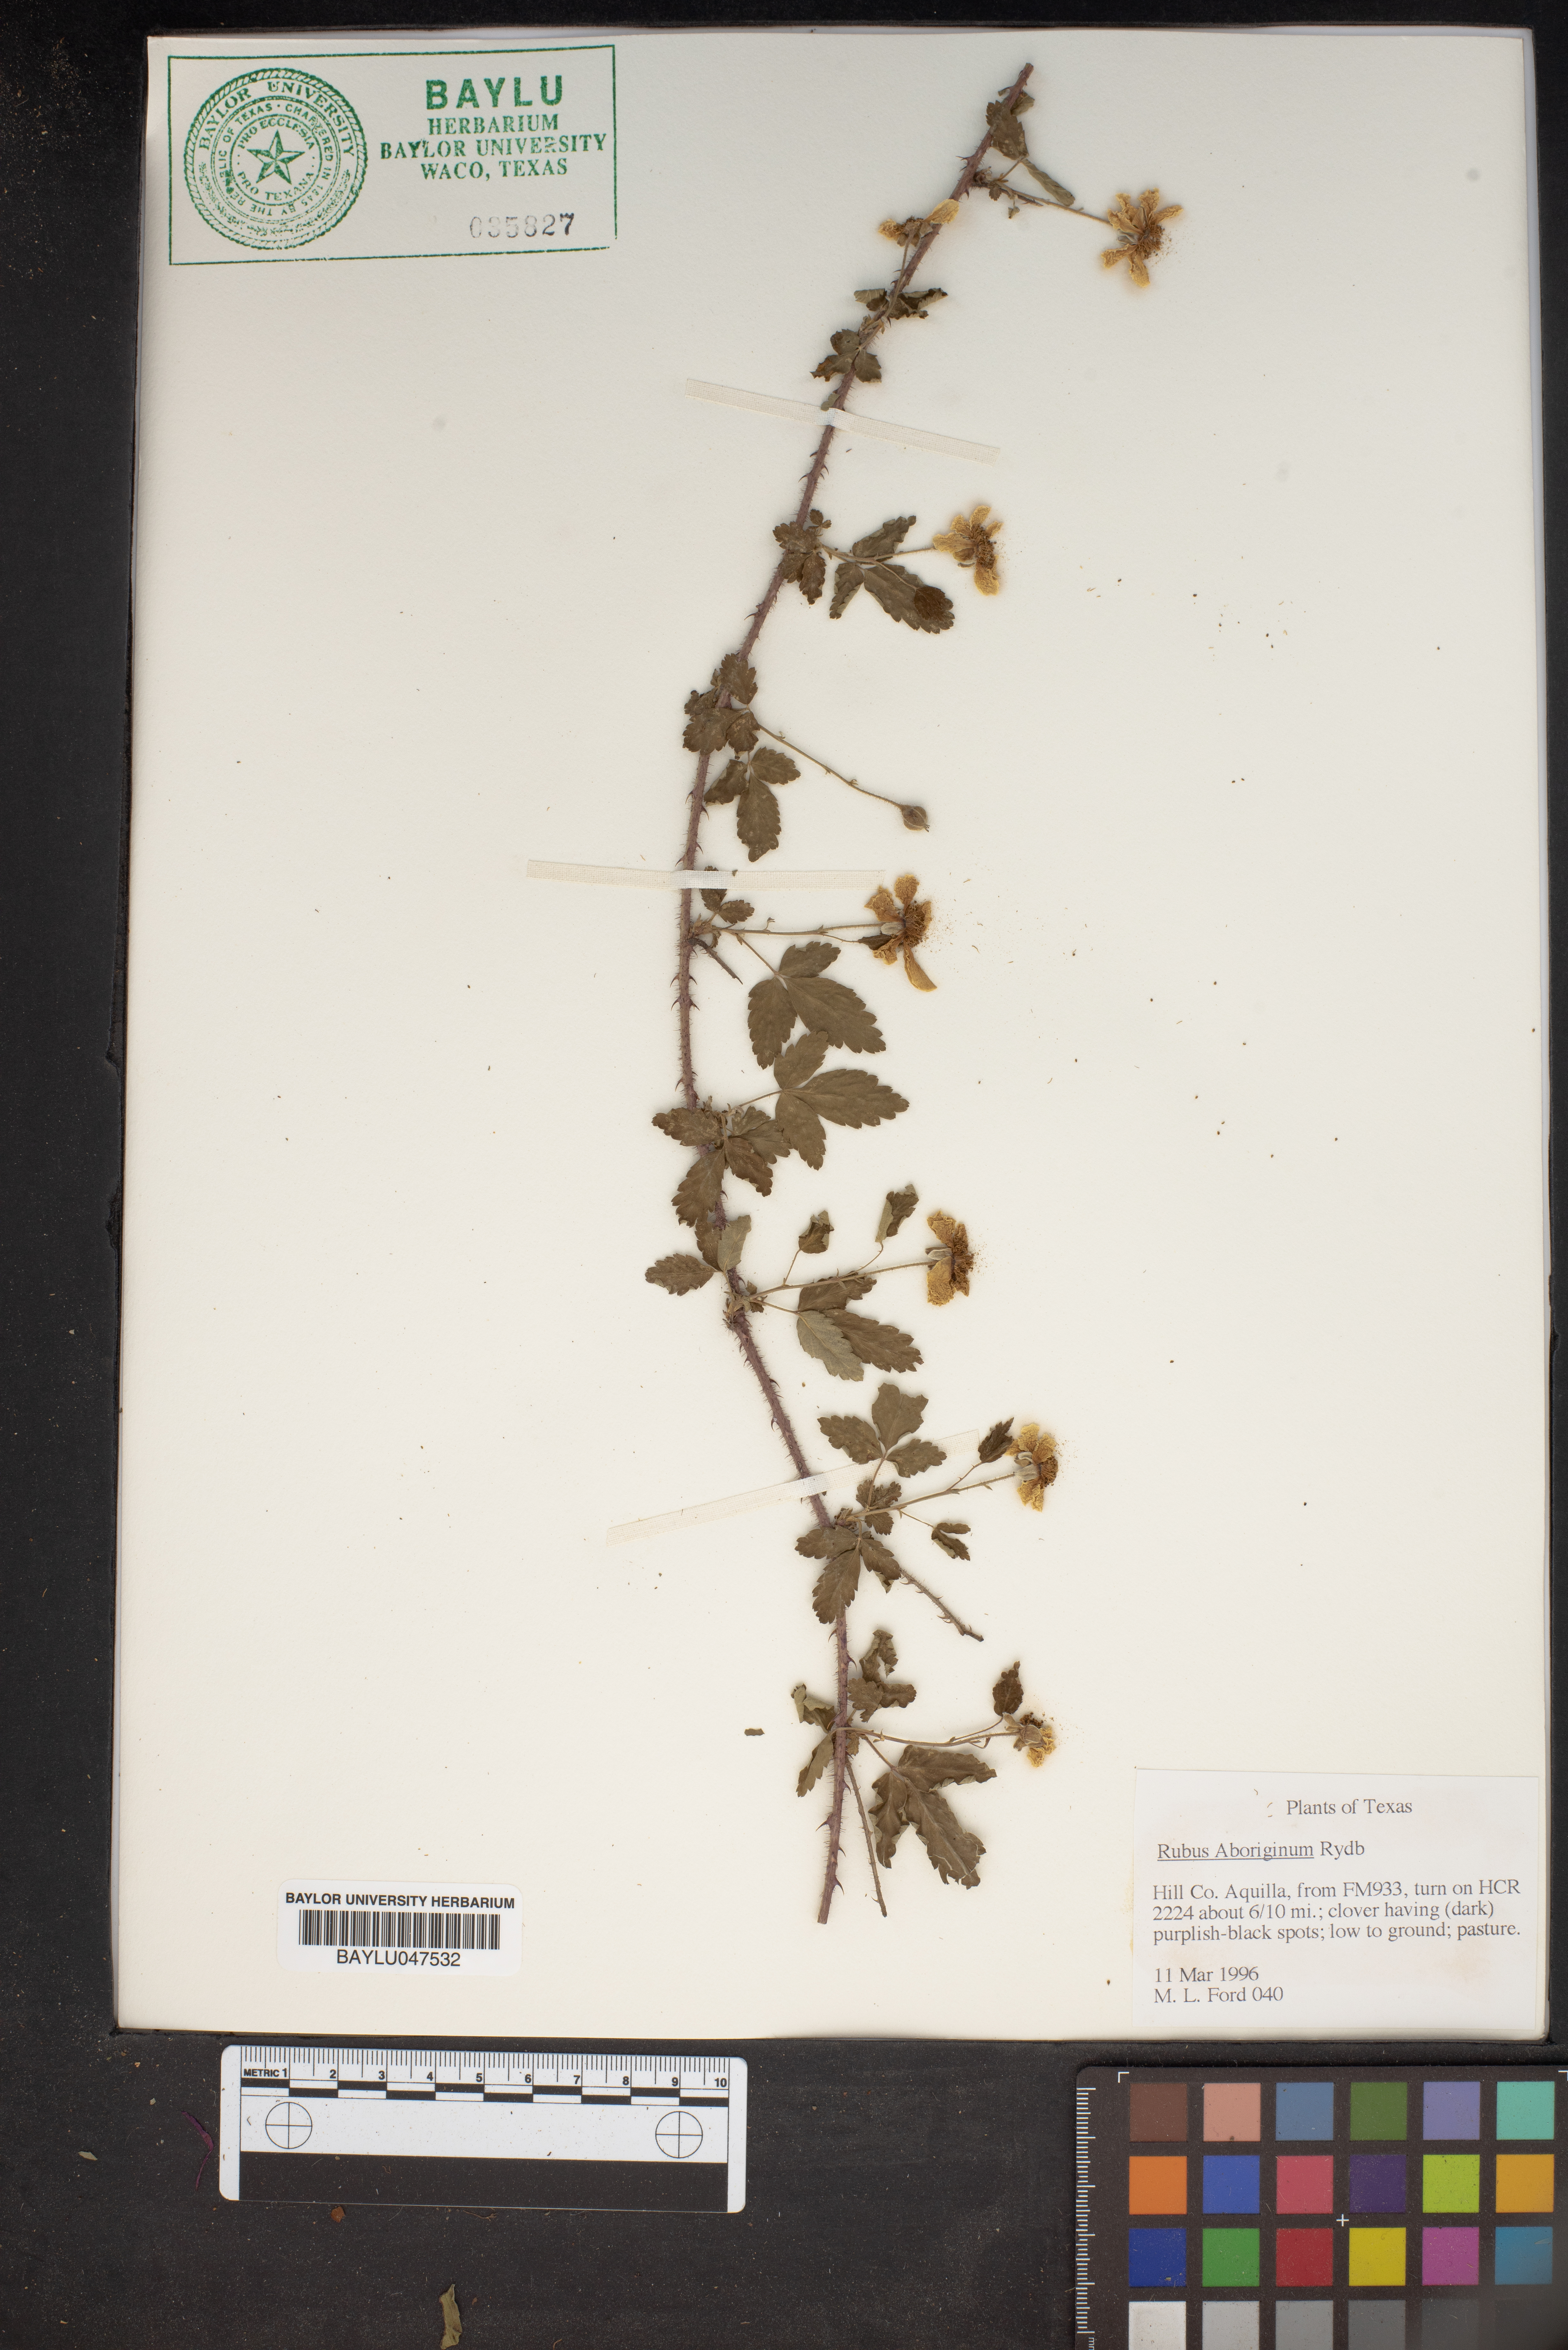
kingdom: Plantae
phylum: Tracheophyta
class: Magnoliopsida
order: Rosales
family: Rosaceae
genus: Rubus
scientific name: Rubus aboriginum
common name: Mayes dewberry
